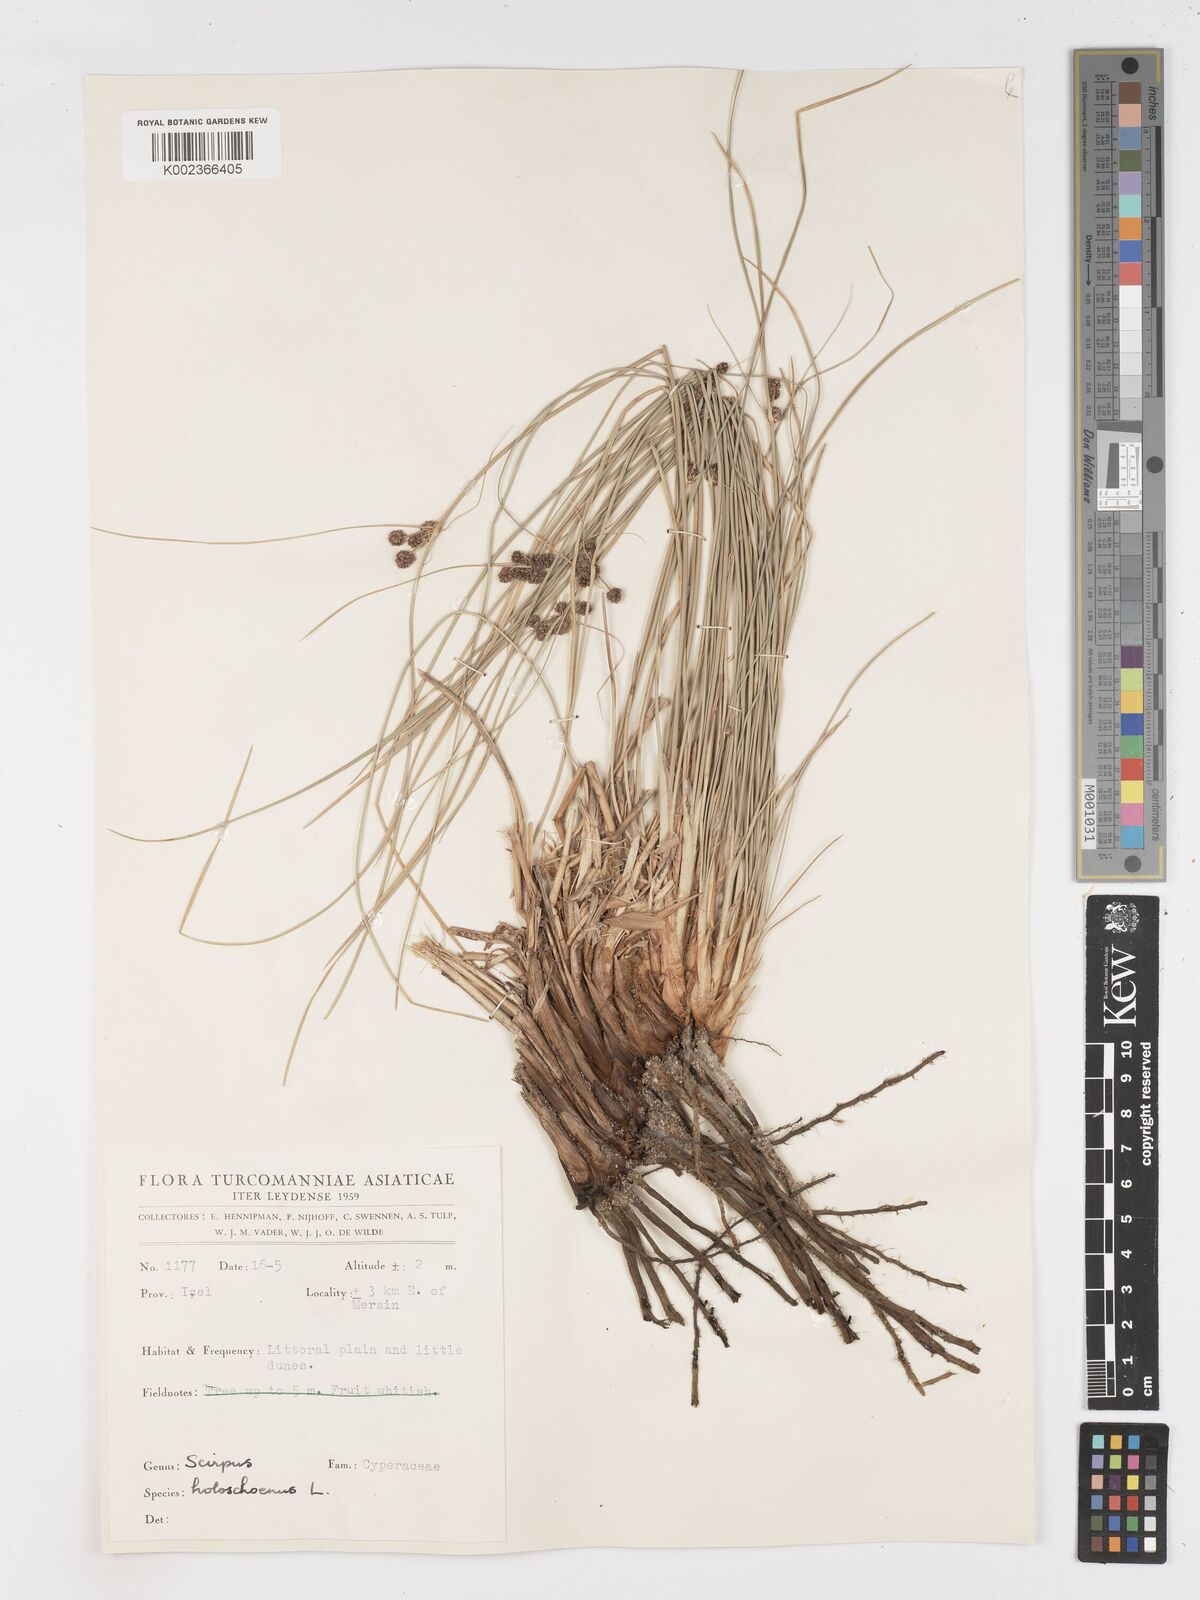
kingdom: Plantae
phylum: Tracheophyta
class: Liliopsida
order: Poales
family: Cyperaceae
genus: Scirpoides
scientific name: Scirpoides holoschoenus
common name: Round-headed club-rush
